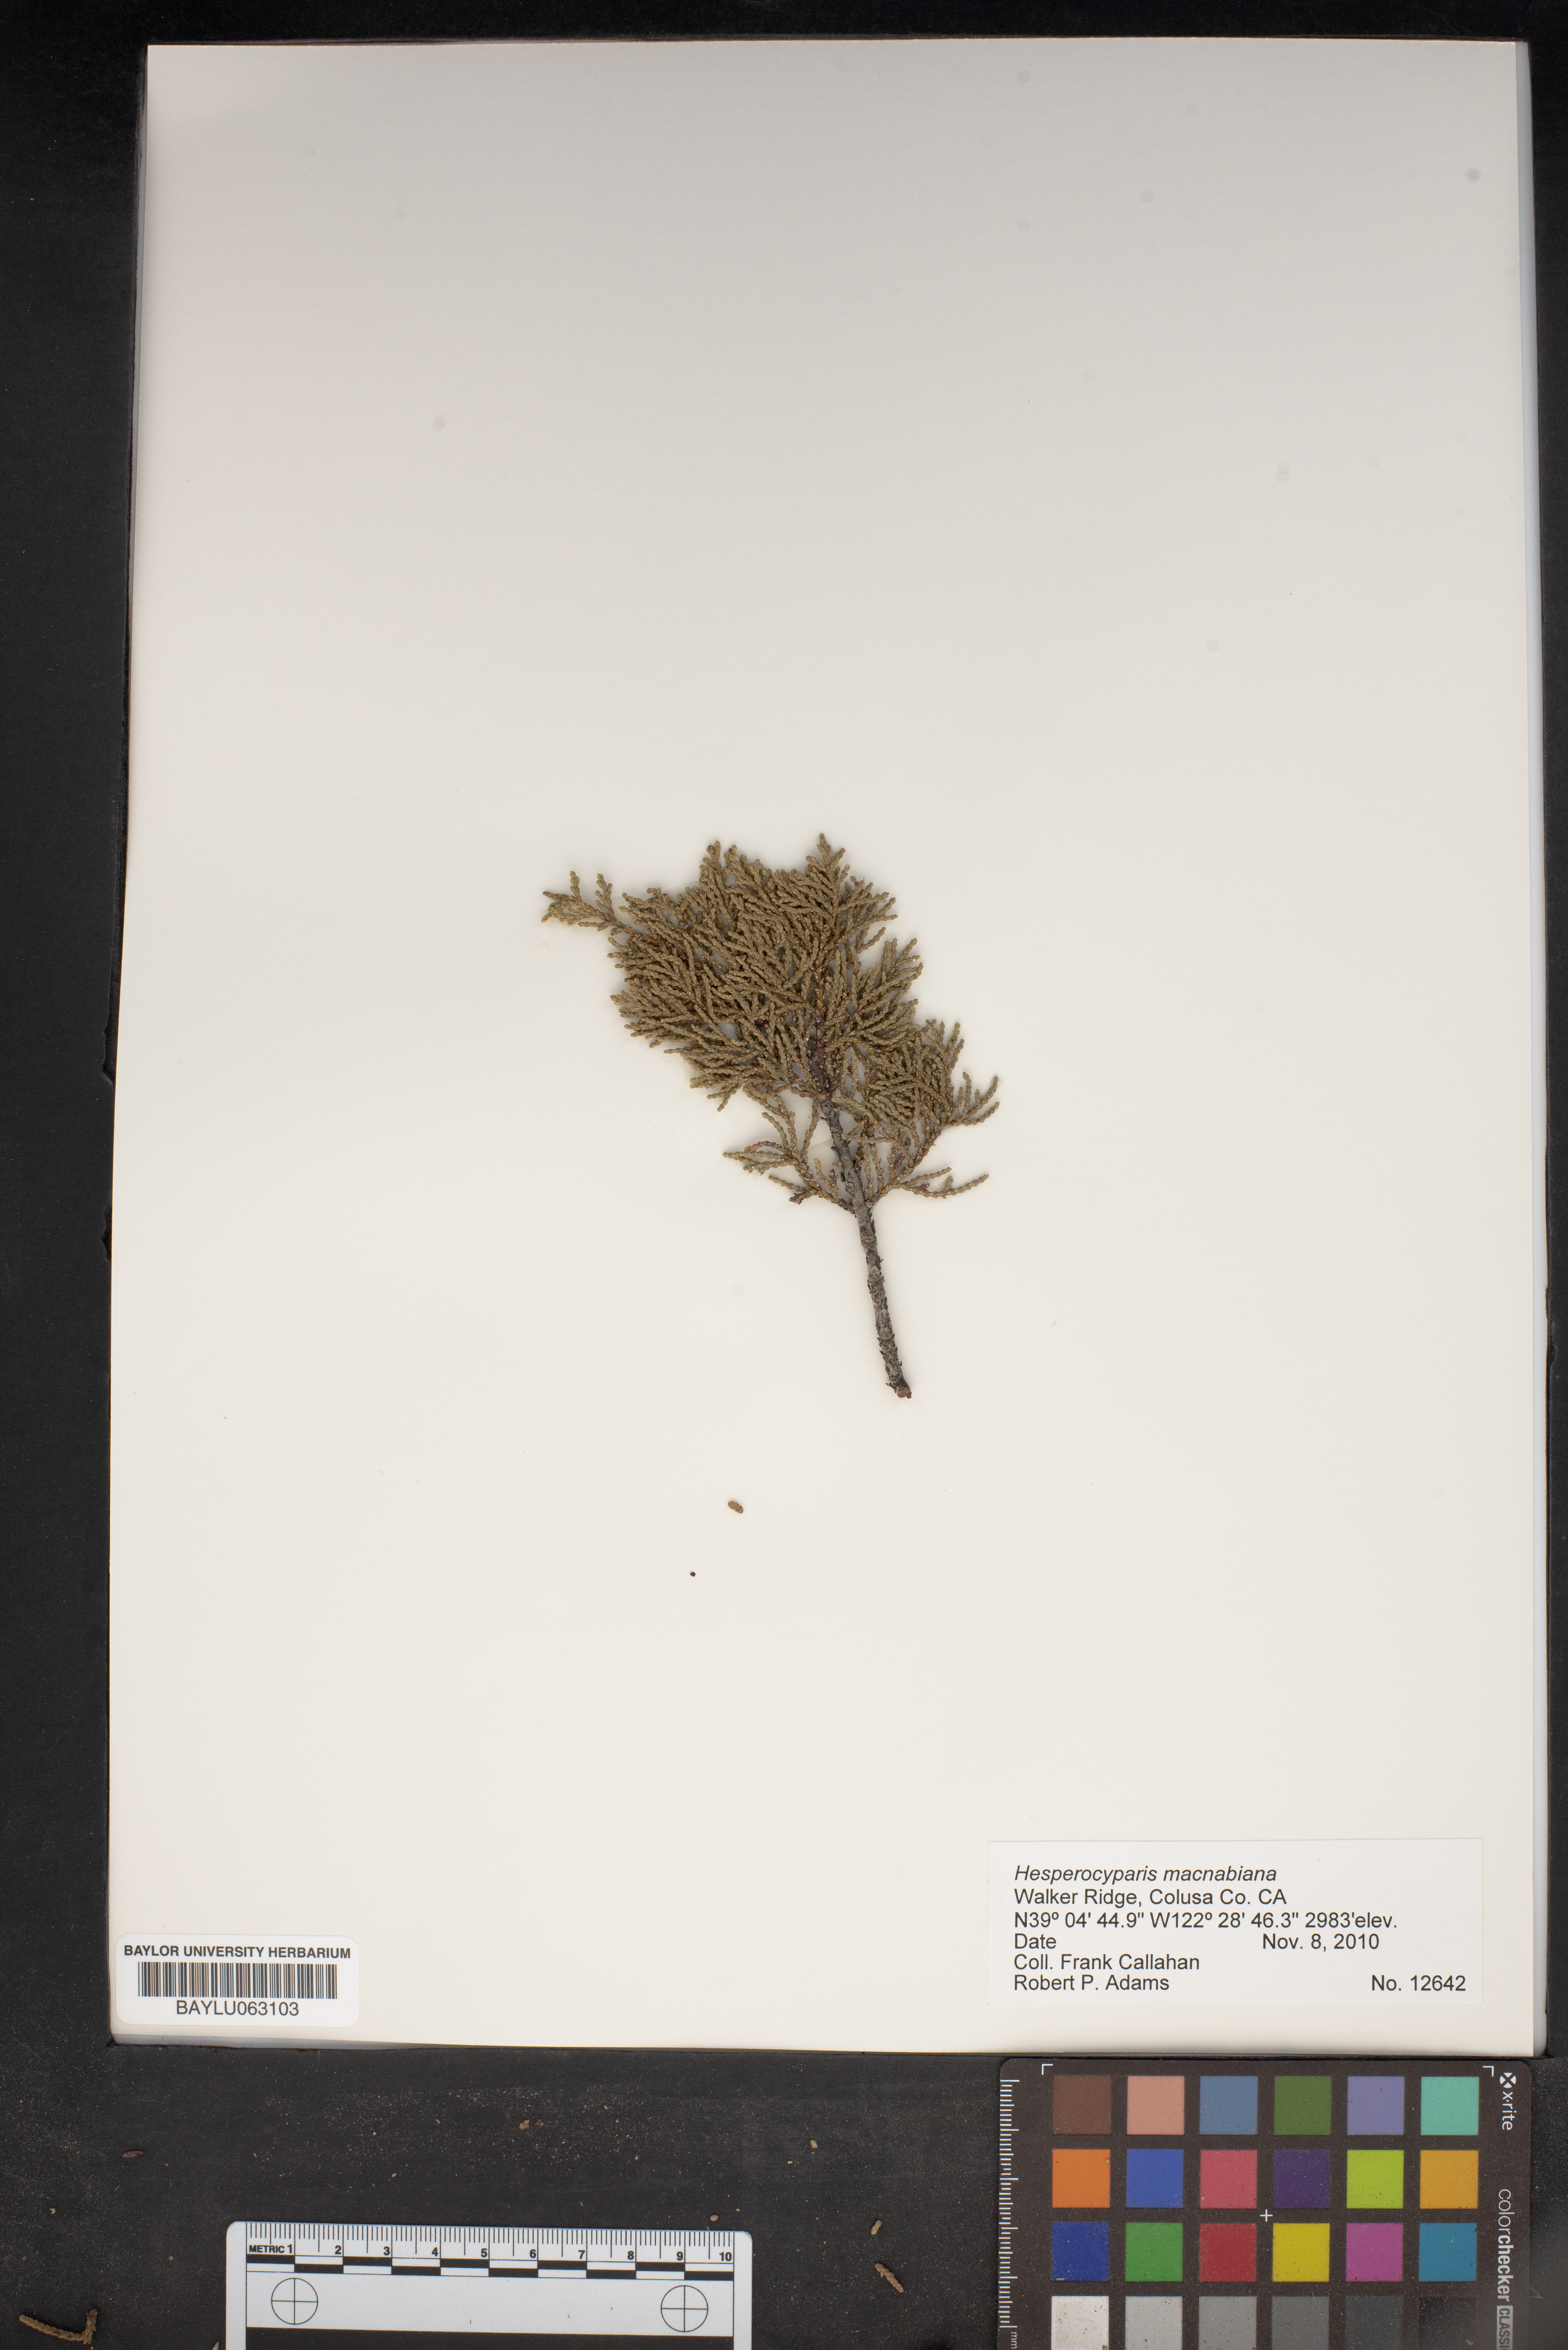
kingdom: Plantae
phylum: Tracheophyta
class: Pinopsida
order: Pinales
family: Cupressaceae
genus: Cupressus
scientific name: Cupressus macnabiana bis
